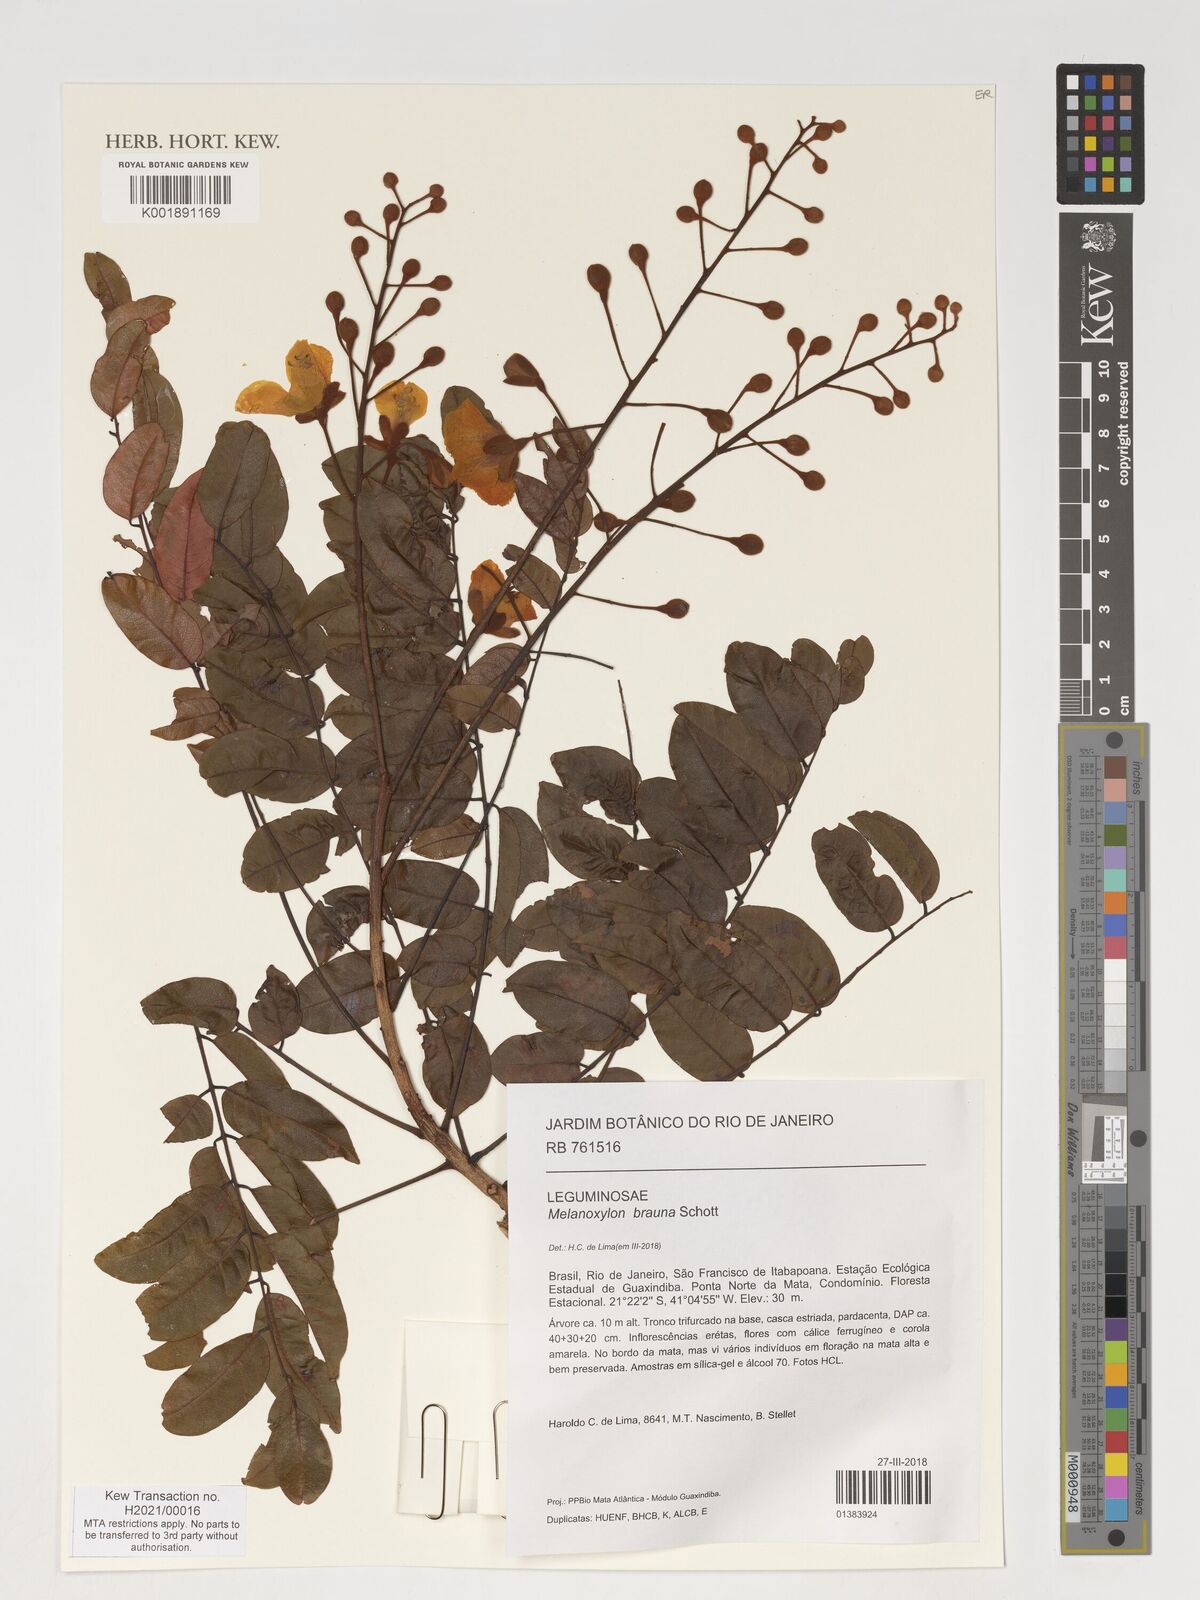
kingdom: Plantae
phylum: Tracheophyta
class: Magnoliopsida
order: Fabales
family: Fabaceae
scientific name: Fabaceae
